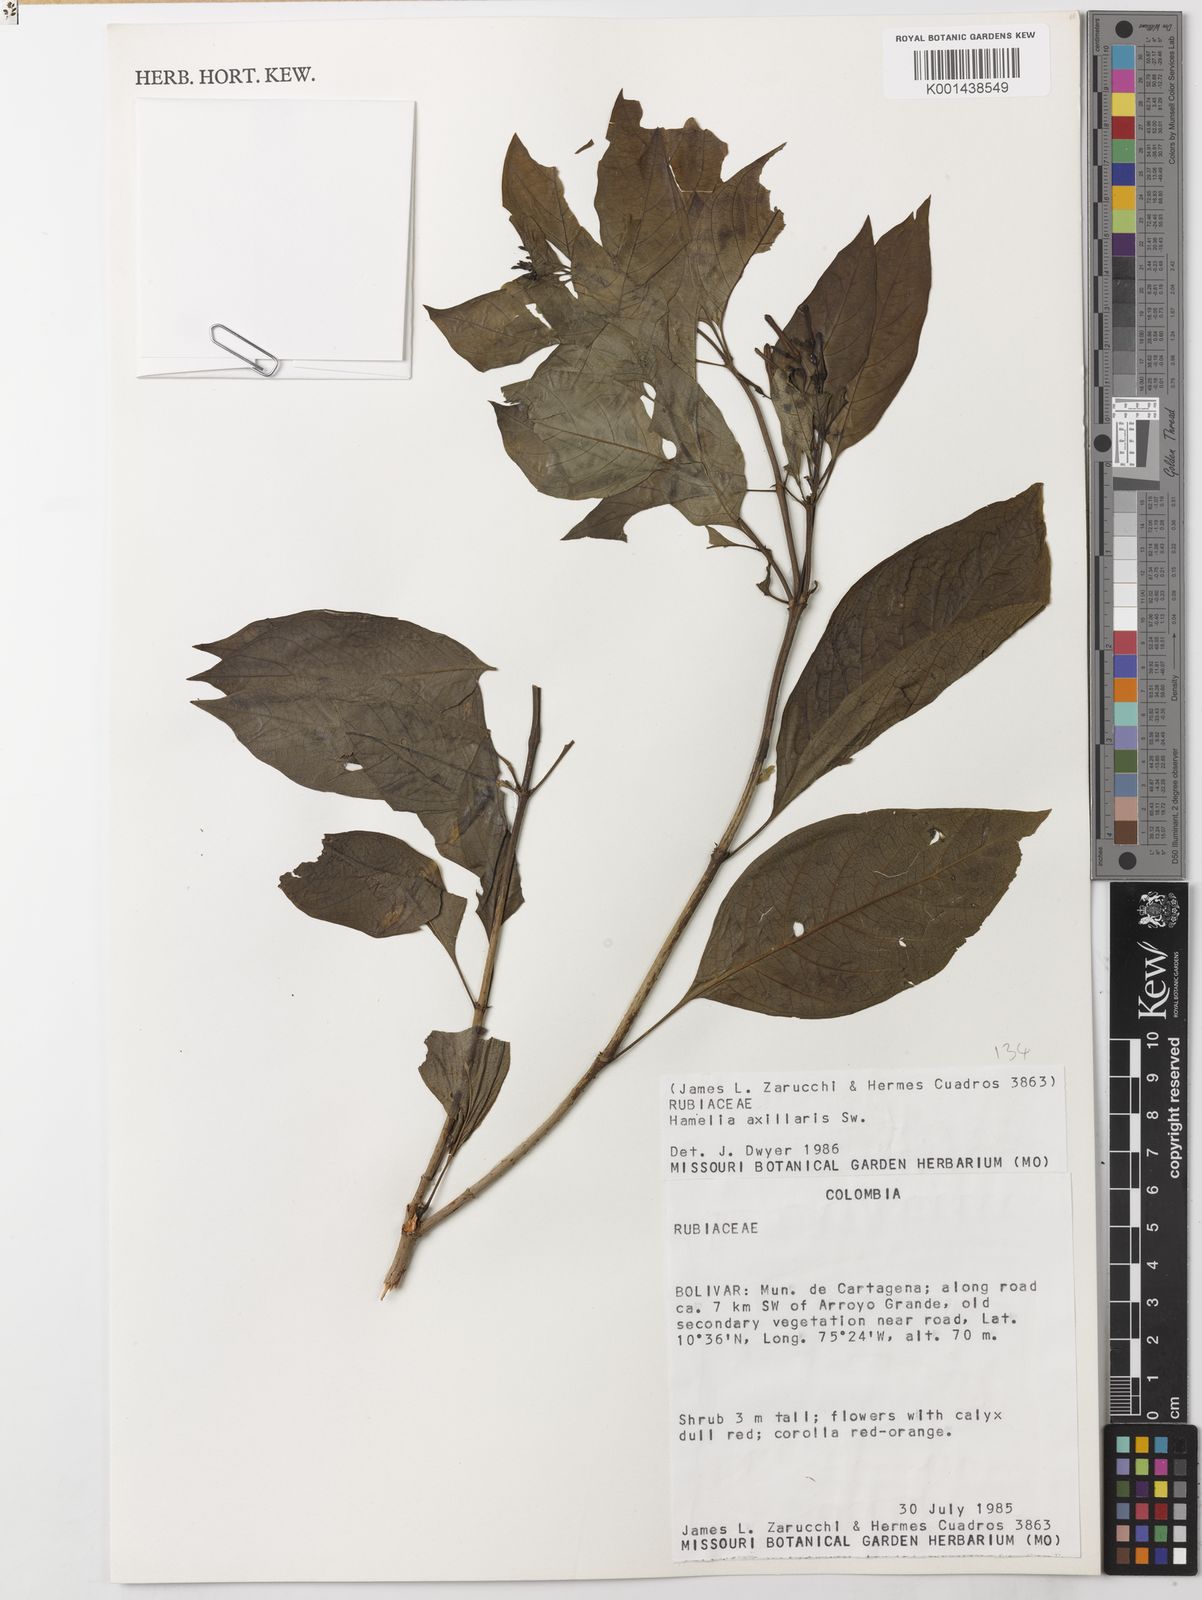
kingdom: Plantae
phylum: Tracheophyta
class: Magnoliopsida
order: Gentianales
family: Rubiaceae
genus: Hamelia
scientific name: Hamelia patens
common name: Redhead
